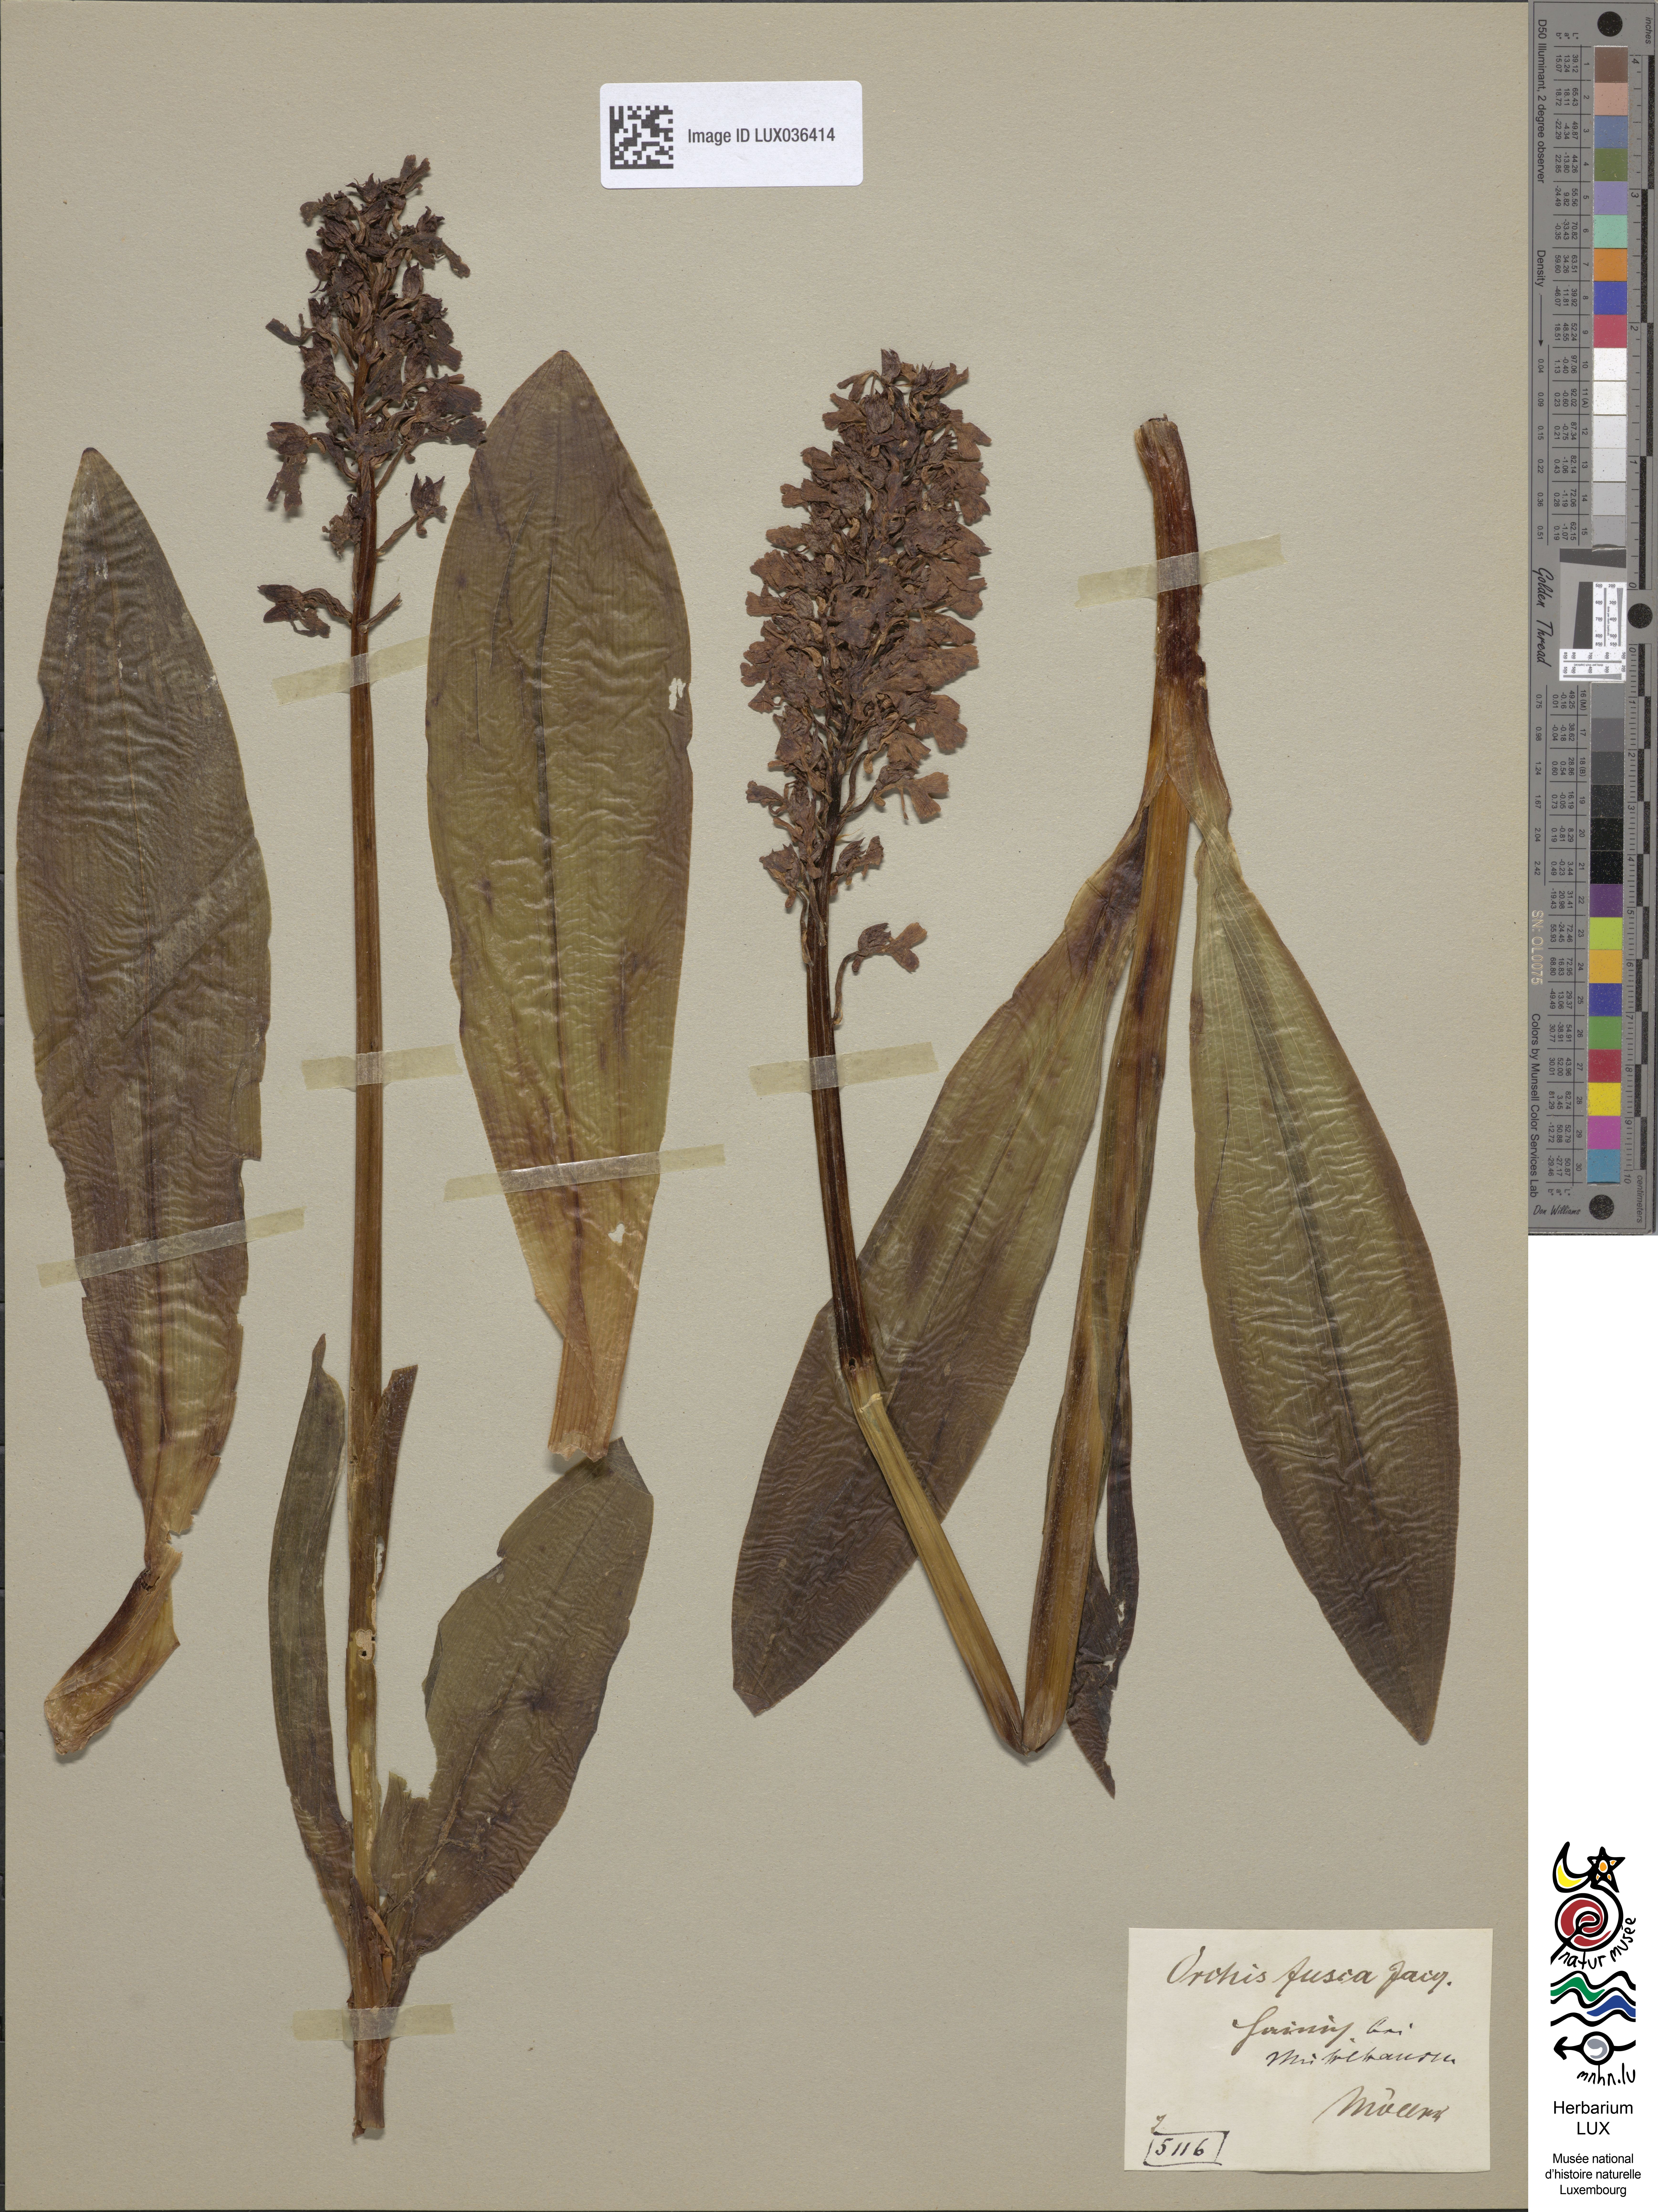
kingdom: Plantae
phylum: Tracheophyta
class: Liliopsida
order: Asparagales
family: Orchidaceae
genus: Orchis
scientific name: Orchis purpurea
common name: Lady orchid
